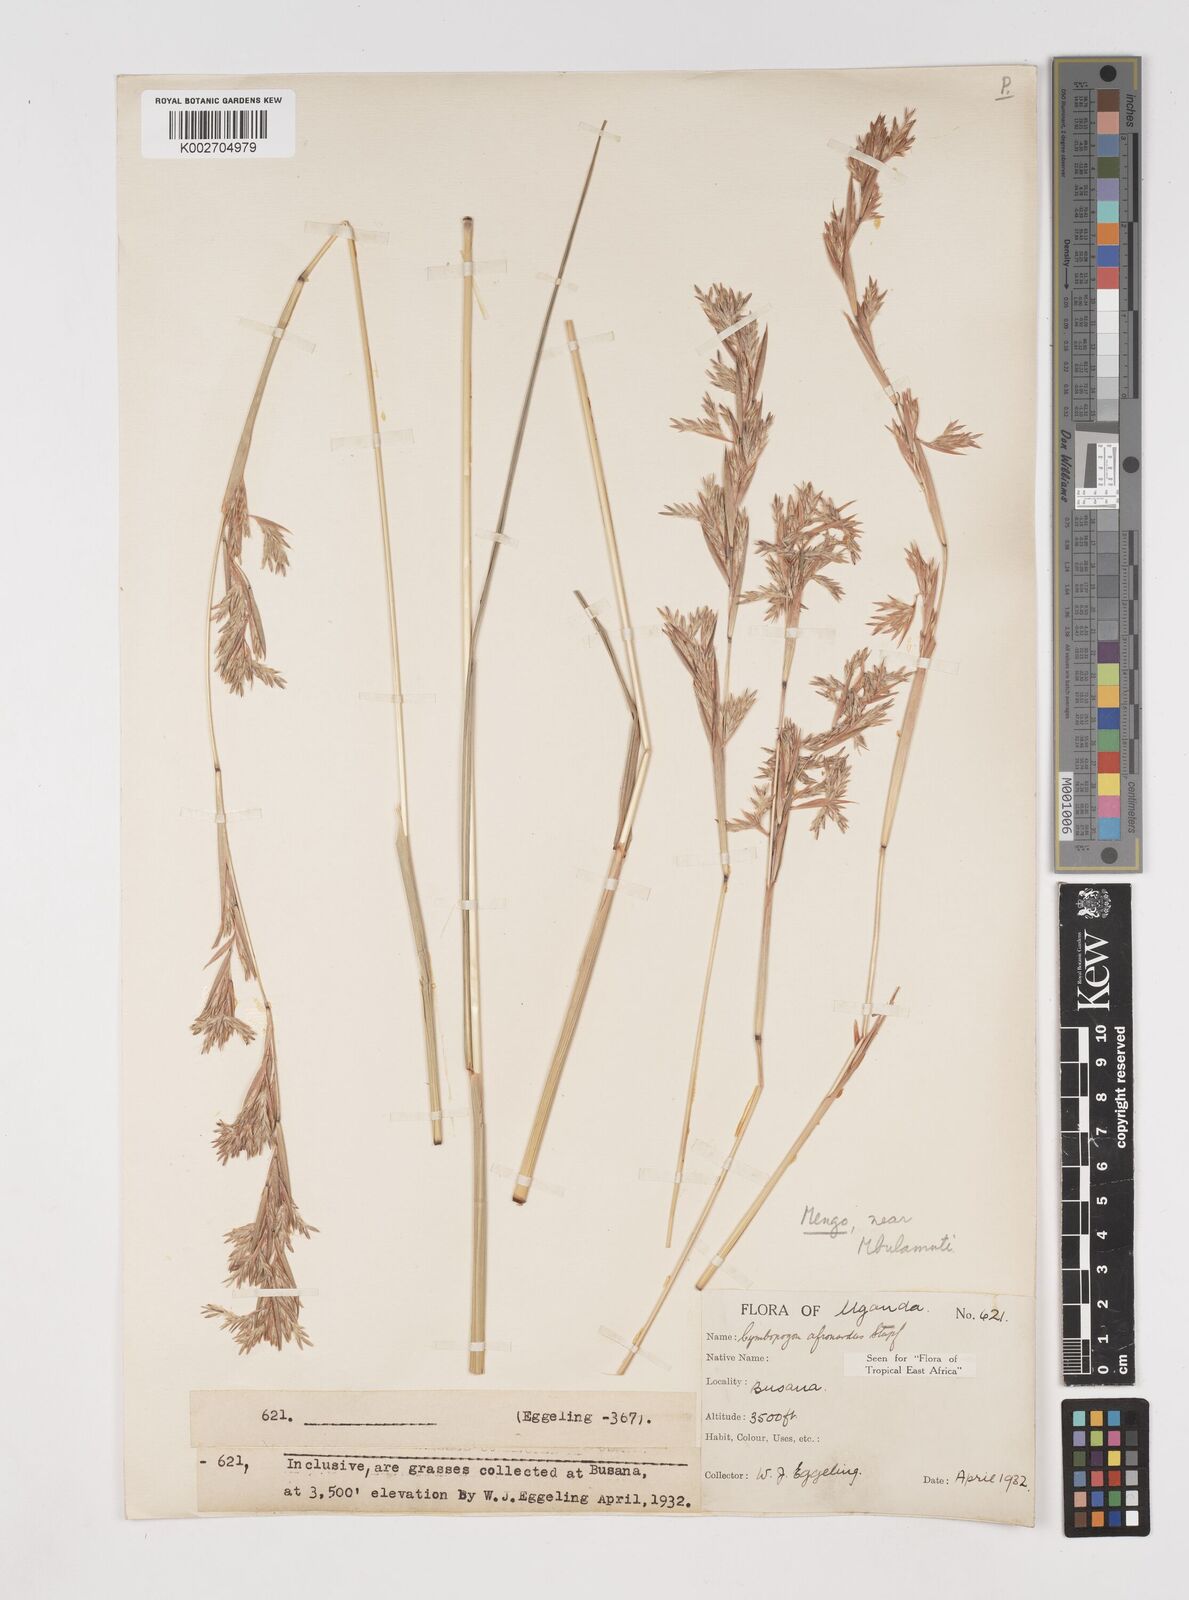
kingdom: Plantae
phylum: Tracheophyta
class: Liliopsida
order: Poales
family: Poaceae
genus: Cymbopogon
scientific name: Cymbopogon nardus
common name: Giant turpentine grass
